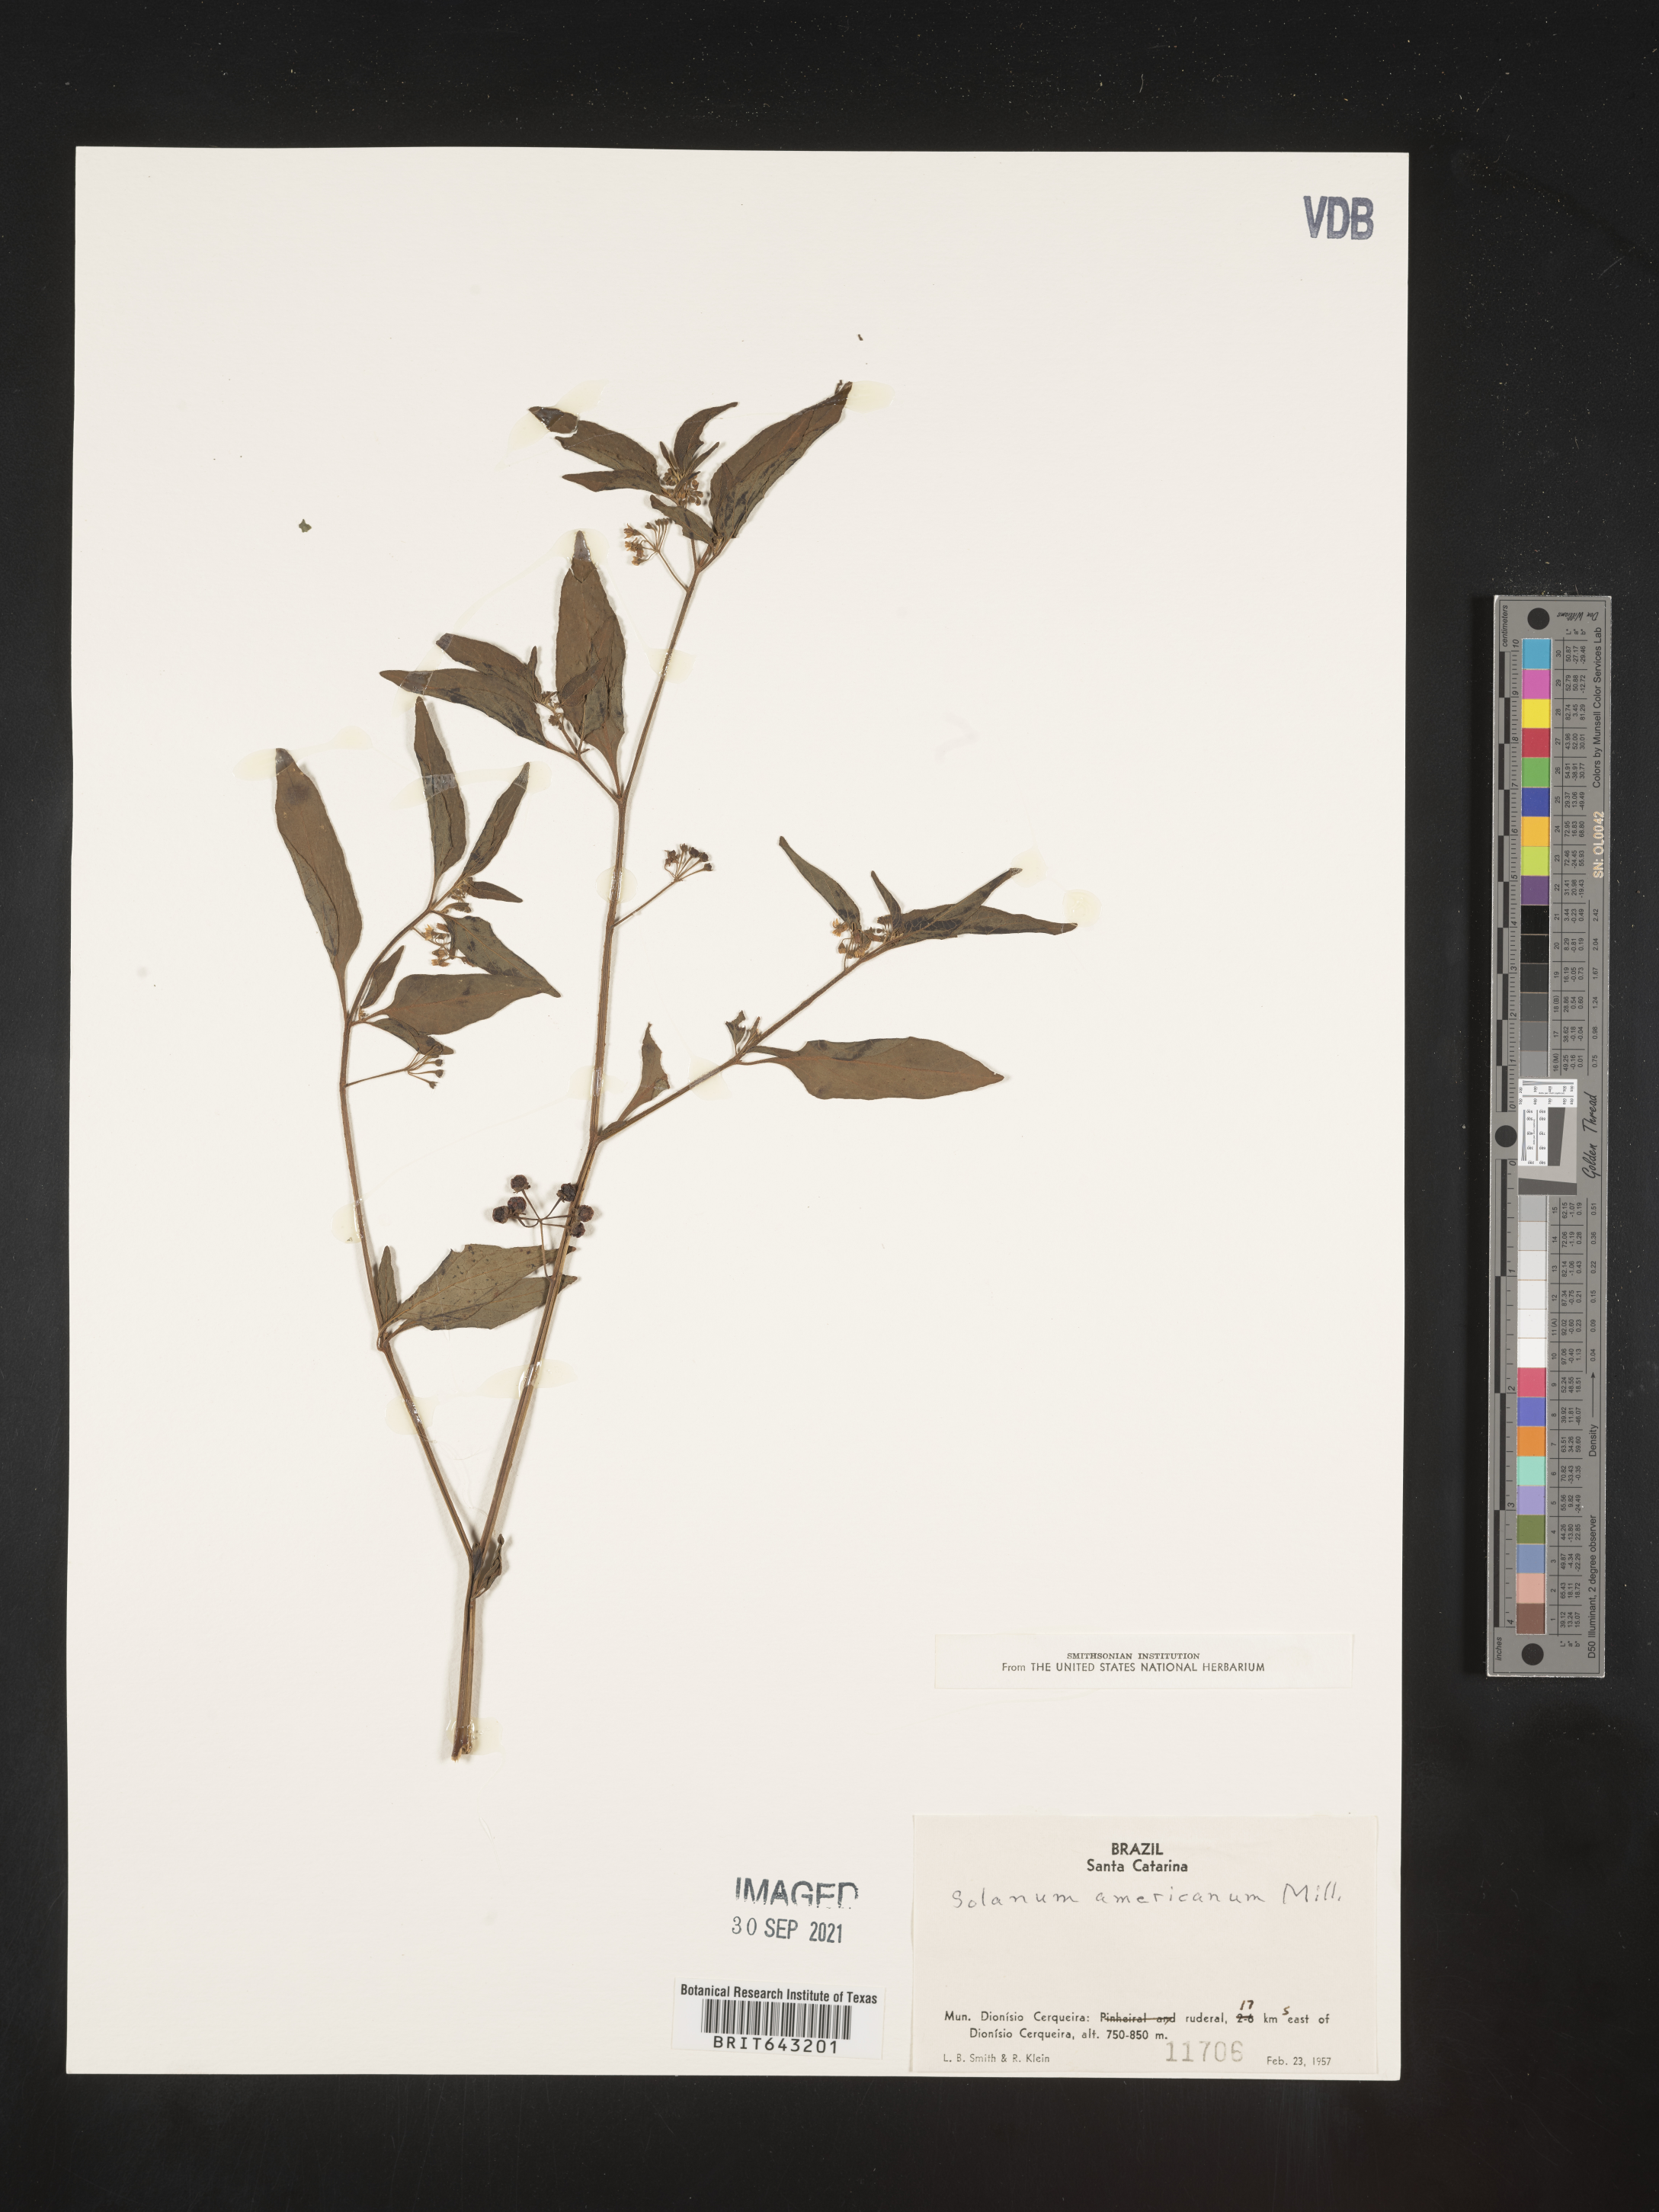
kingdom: Plantae
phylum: Tracheophyta
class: Magnoliopsida
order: Solanales
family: Solanaceae
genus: Solanum
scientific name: Solanum
